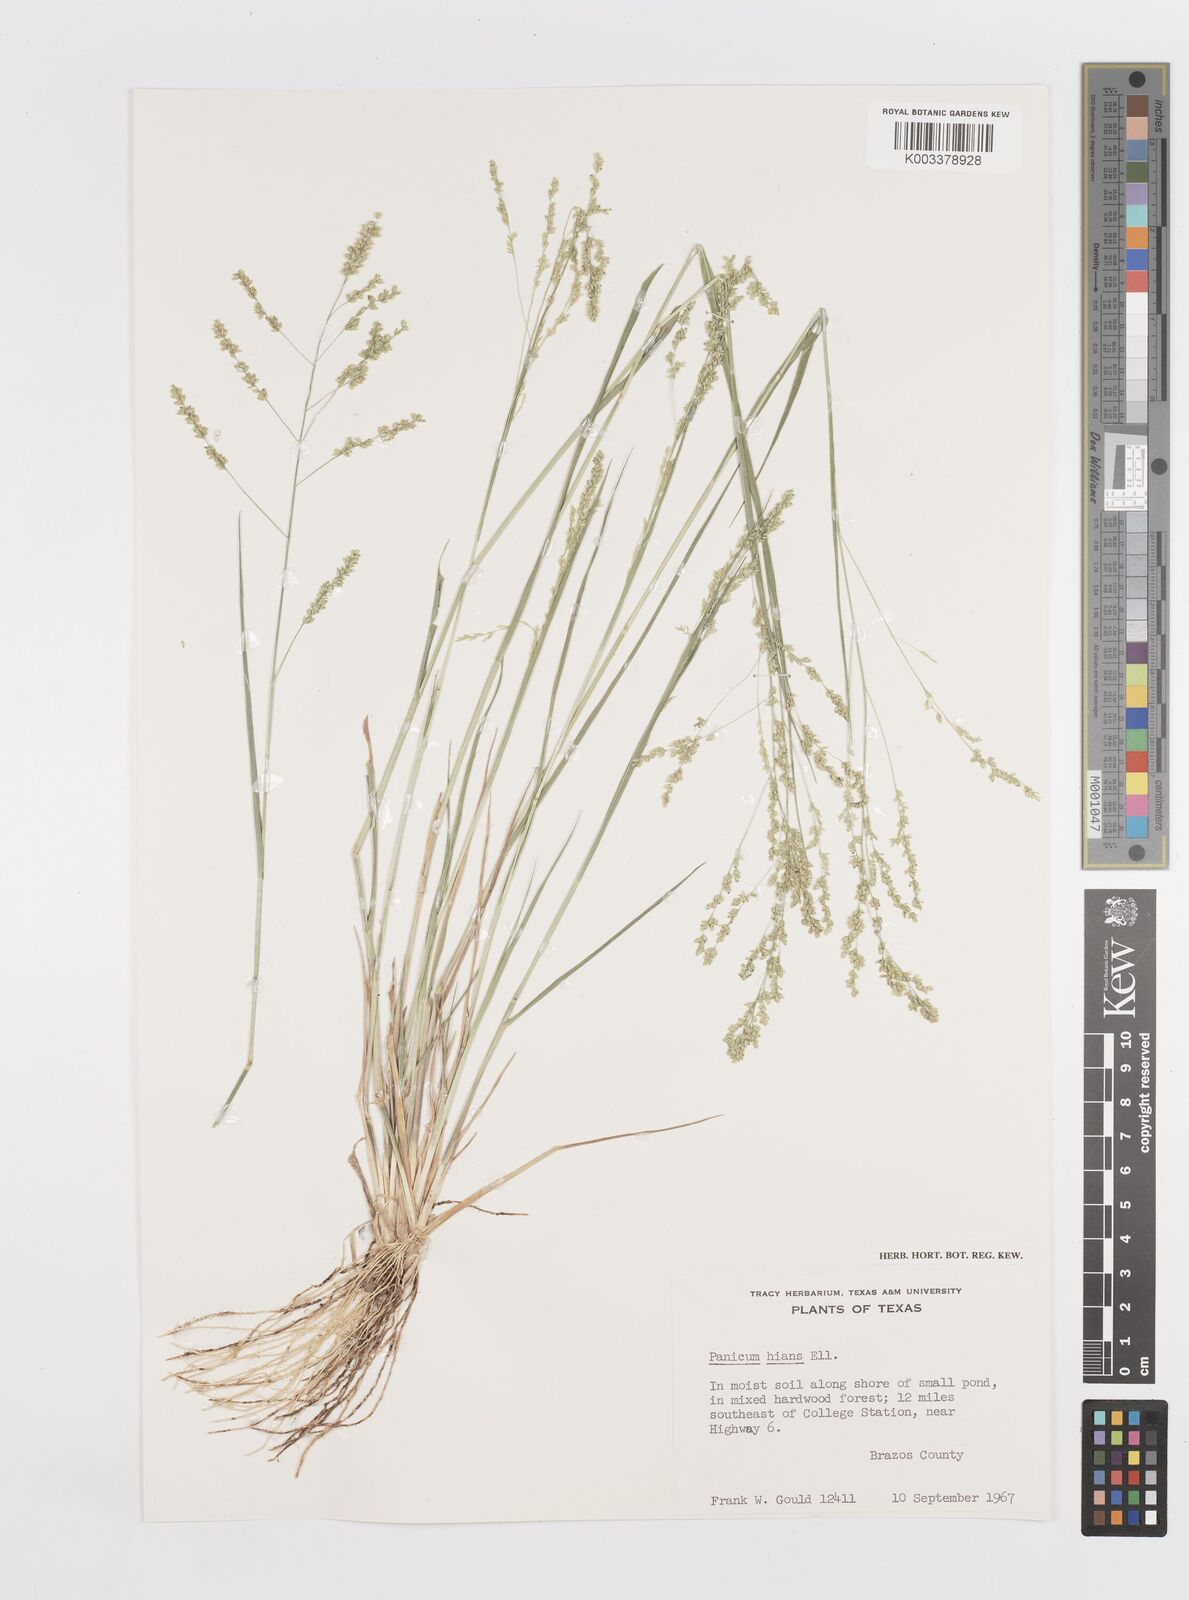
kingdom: Plantae
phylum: Tracheophyta
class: Liliopsida
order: Poales
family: Poaceae
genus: Steinchisma
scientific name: Steinchisma hians
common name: Gaping panic grass
